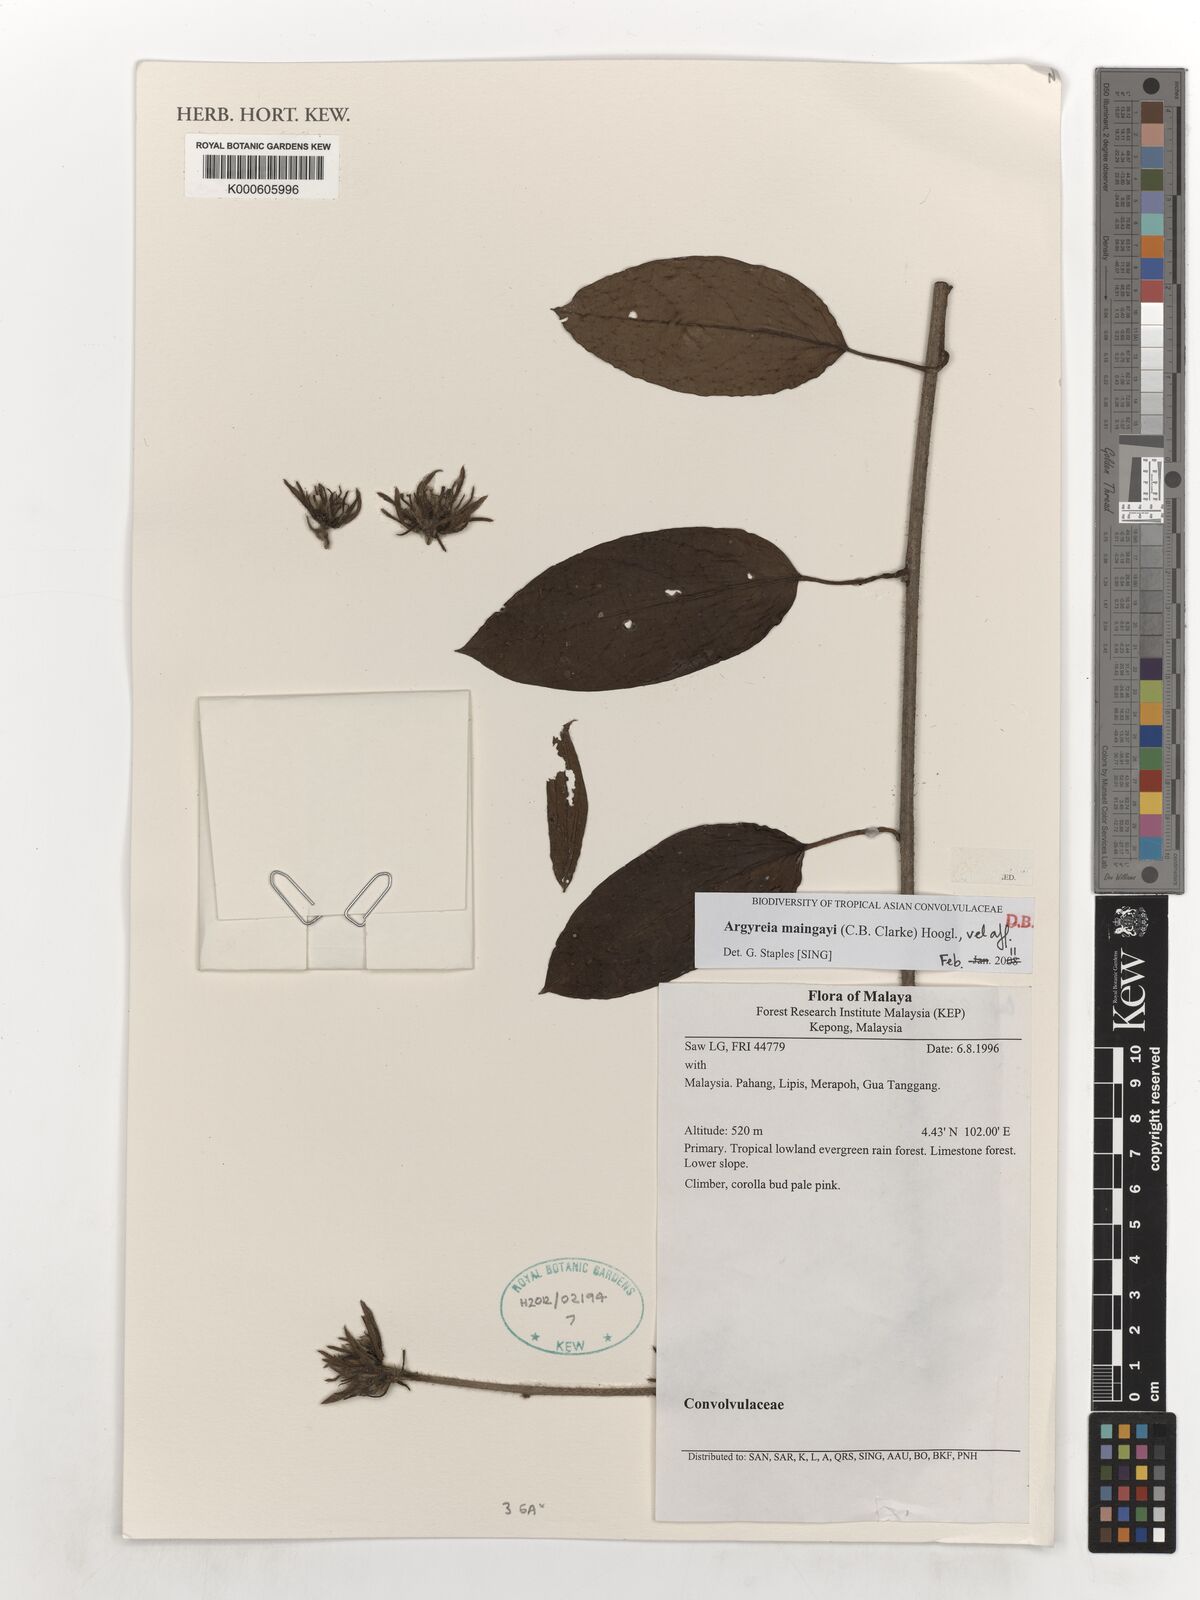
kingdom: Plantae
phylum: Tracheophyta
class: Magnoliopsida
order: Solanales
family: Convolvulaceae
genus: Argyreia
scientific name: Argyreia maingayi
